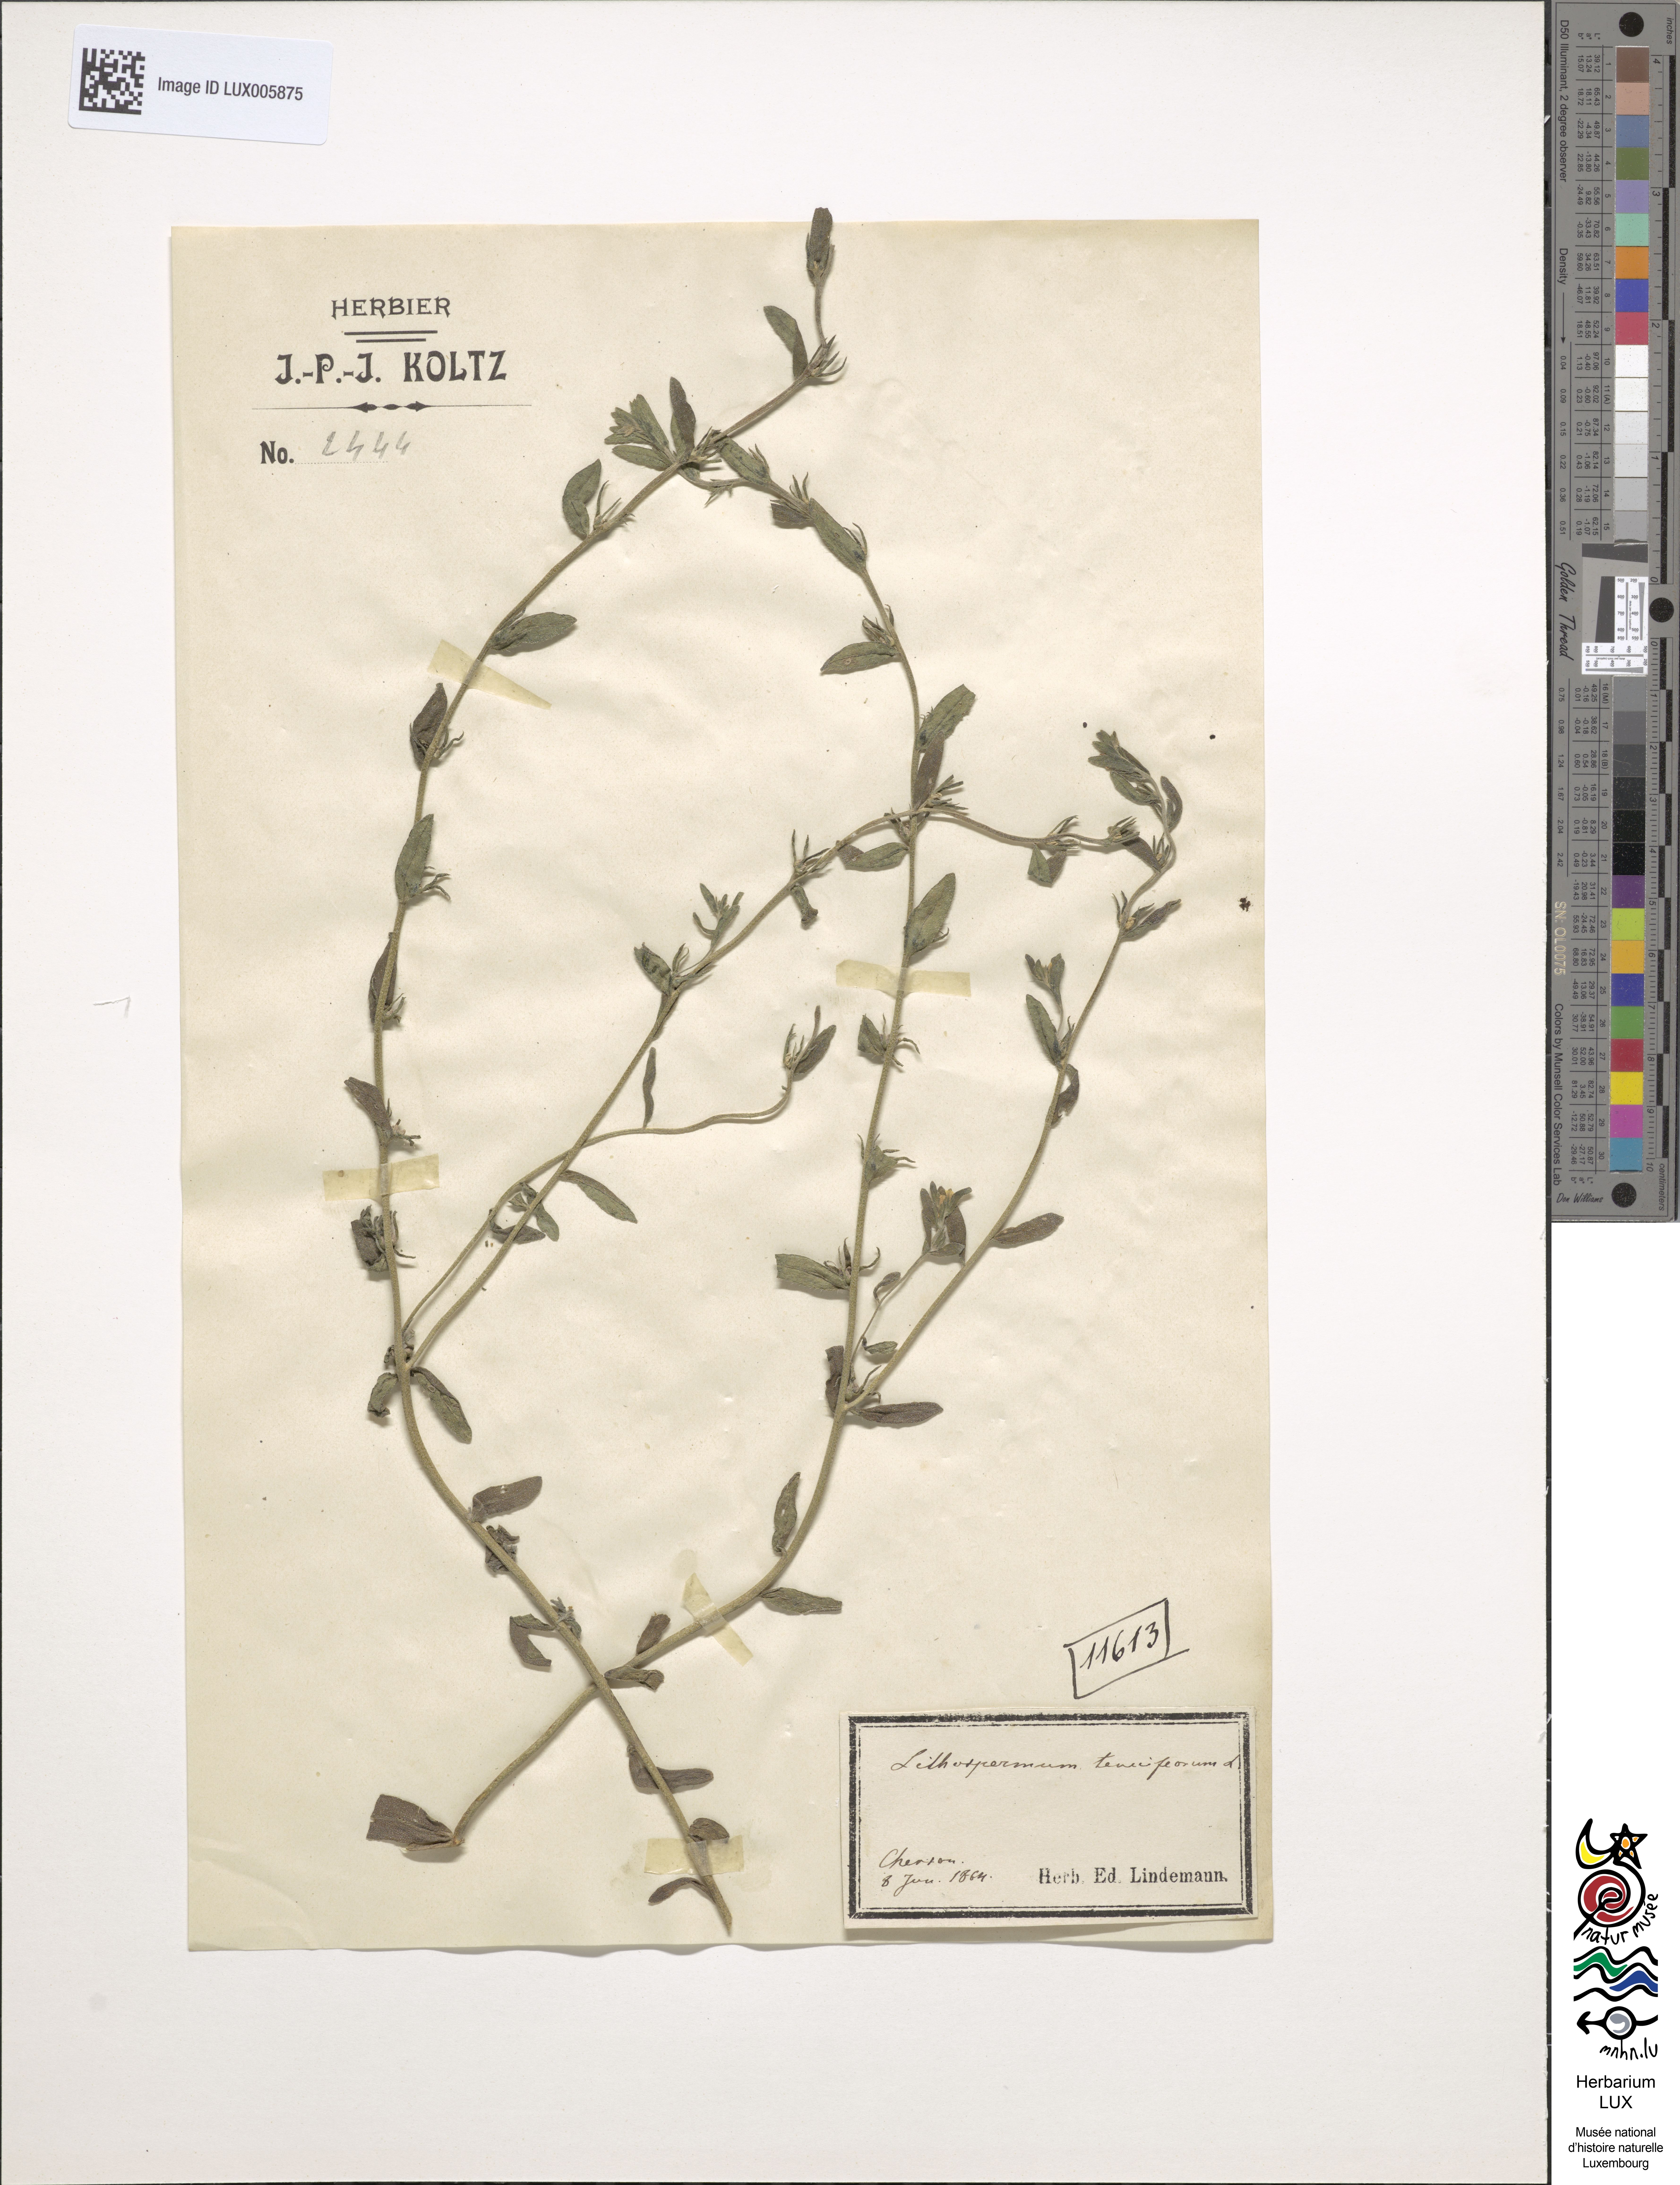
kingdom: Plantae
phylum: Tracheophyta
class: Magnoliopsida
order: Boraginales
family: Boraginaceae
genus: Buglossoides
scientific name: Buglossoides tenuiflora
